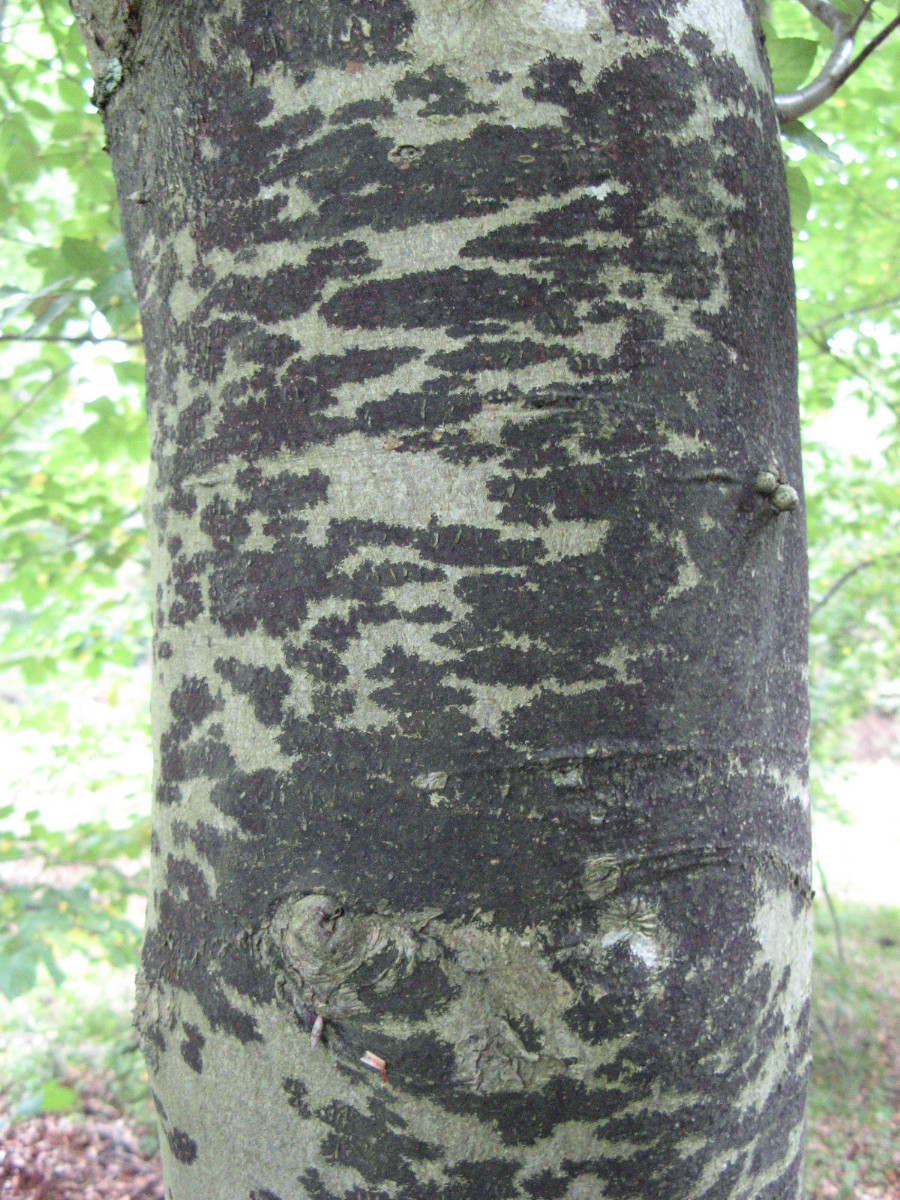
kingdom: Fungi
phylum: Ascomycota
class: Leotiomycetes
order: Rhytismatales
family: Ascodichaenaceae
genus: Ascodichaena
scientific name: Ascodichaena rugosa
